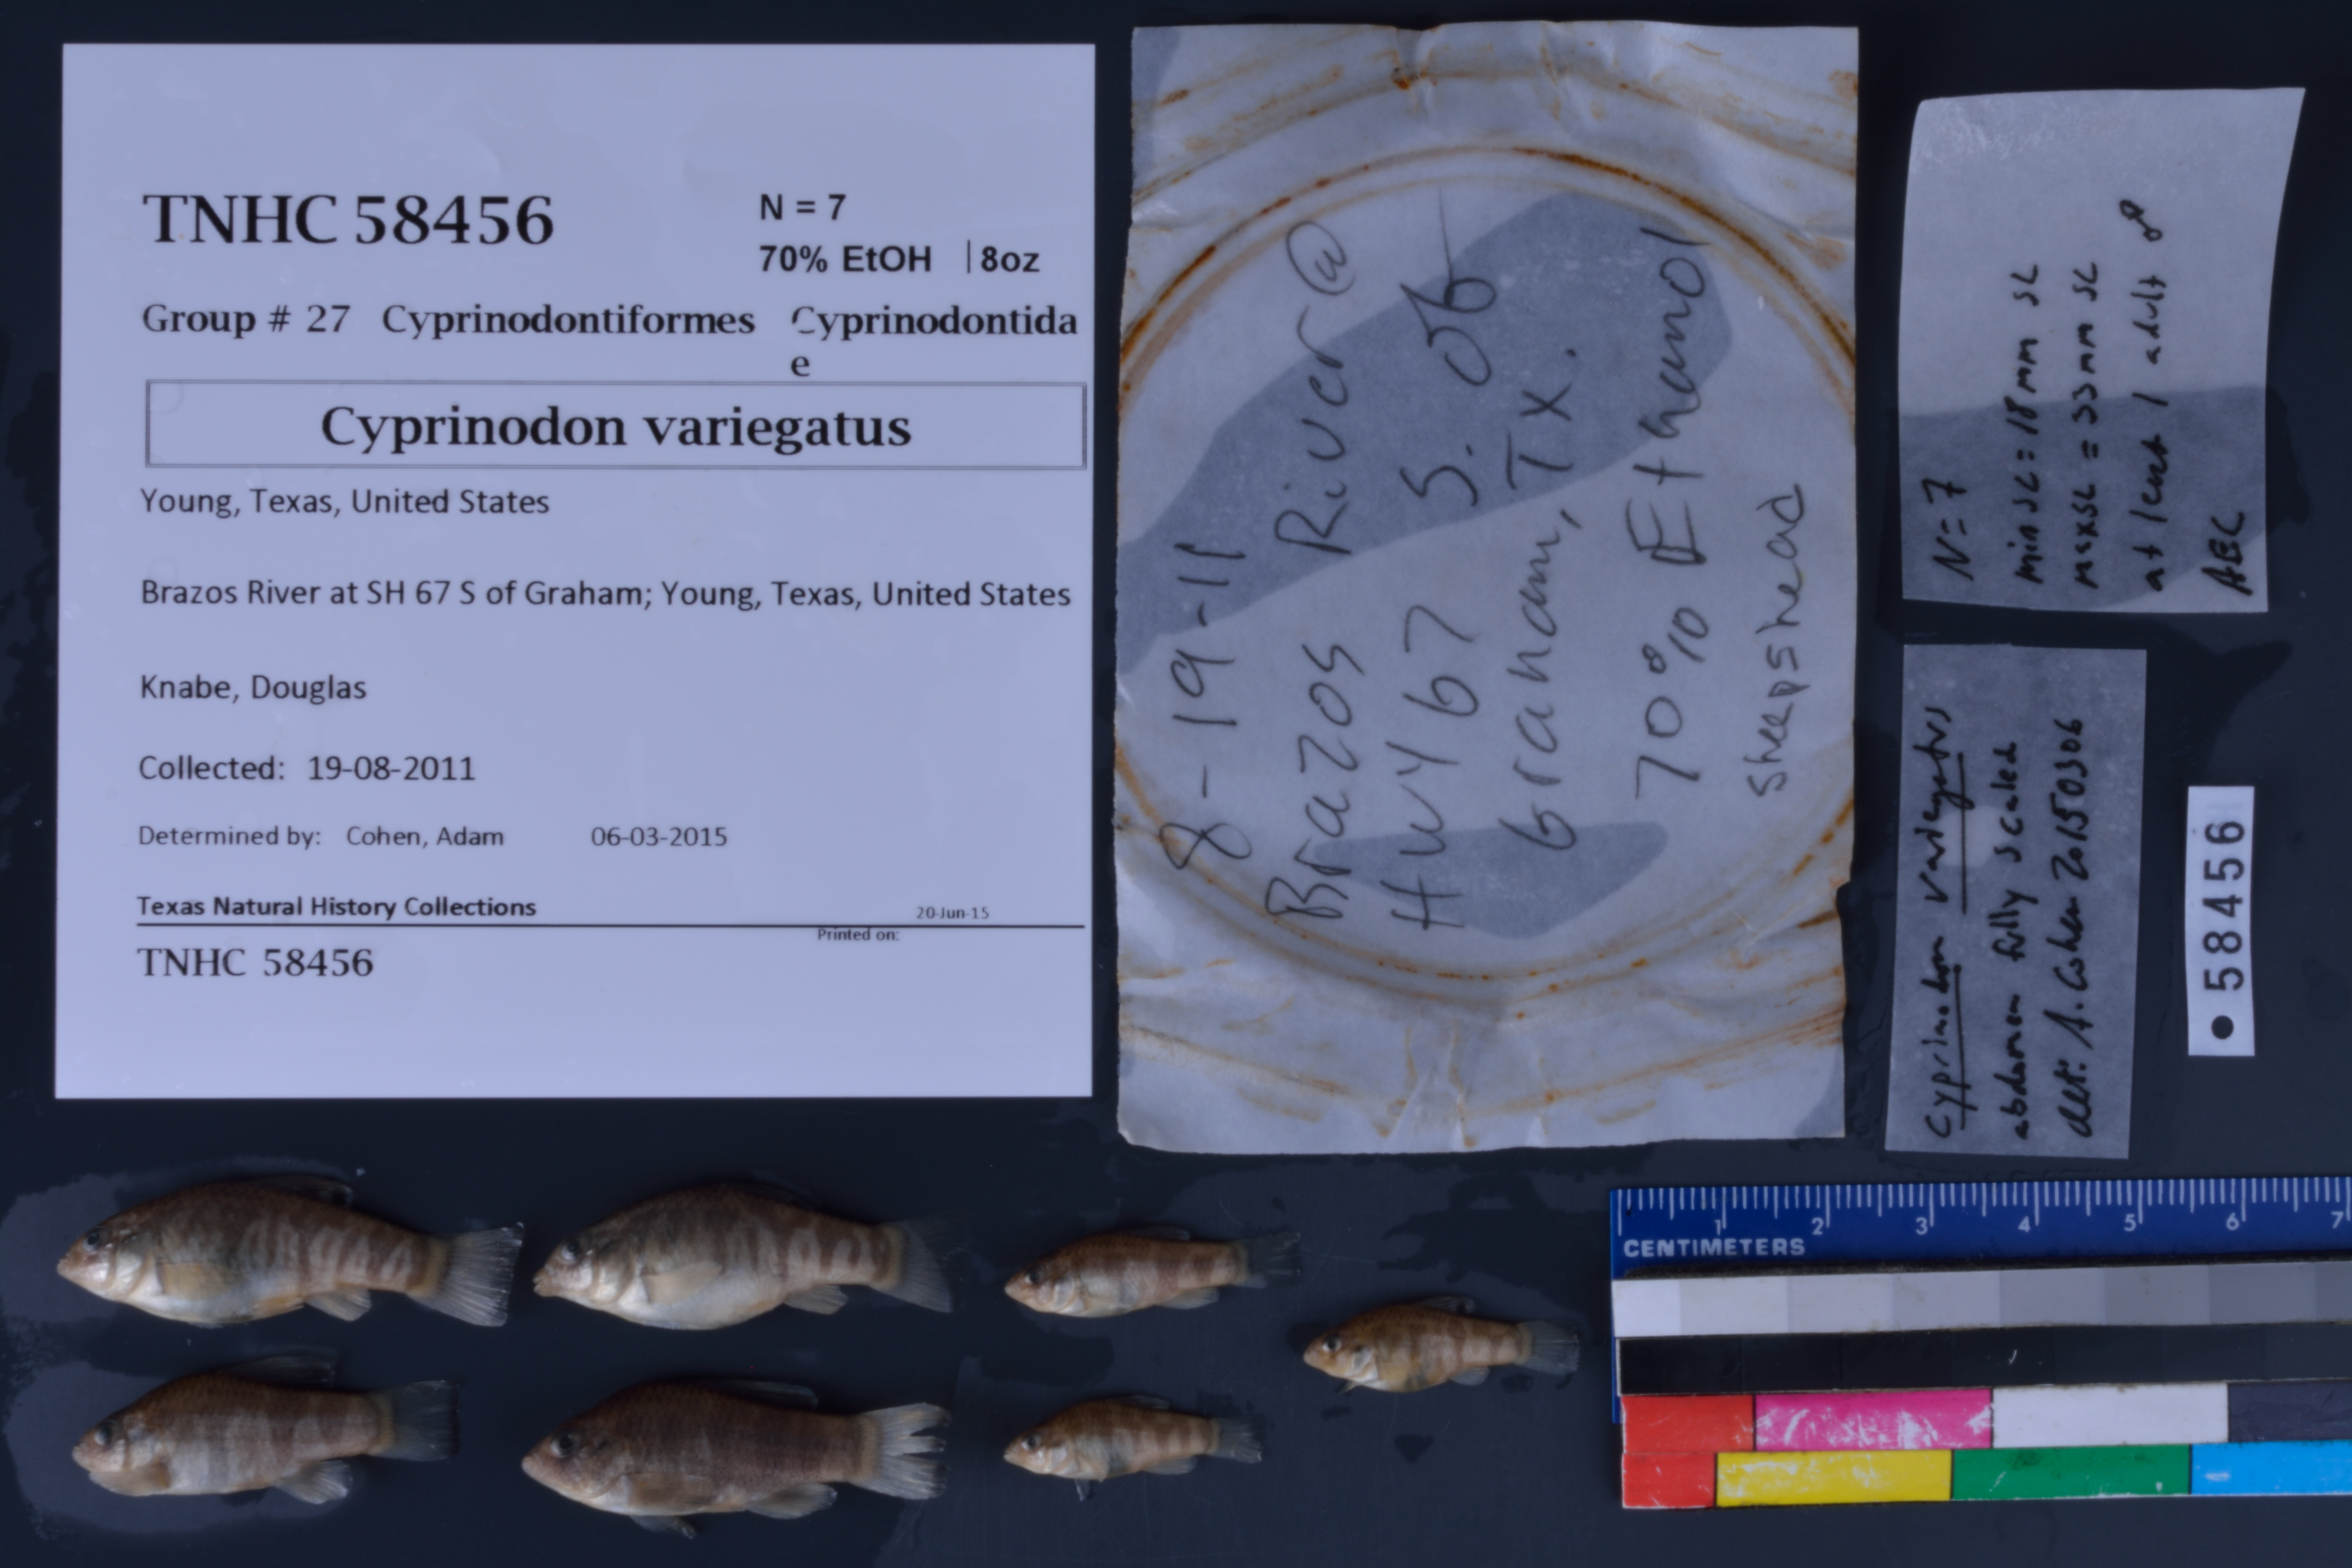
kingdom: Animalia
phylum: Chordata
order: Cyprinodontiformes
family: Cyprinodontidae
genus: Cyprinodon
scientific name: Cyprinodon variegatus
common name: Sheepshead minnow
